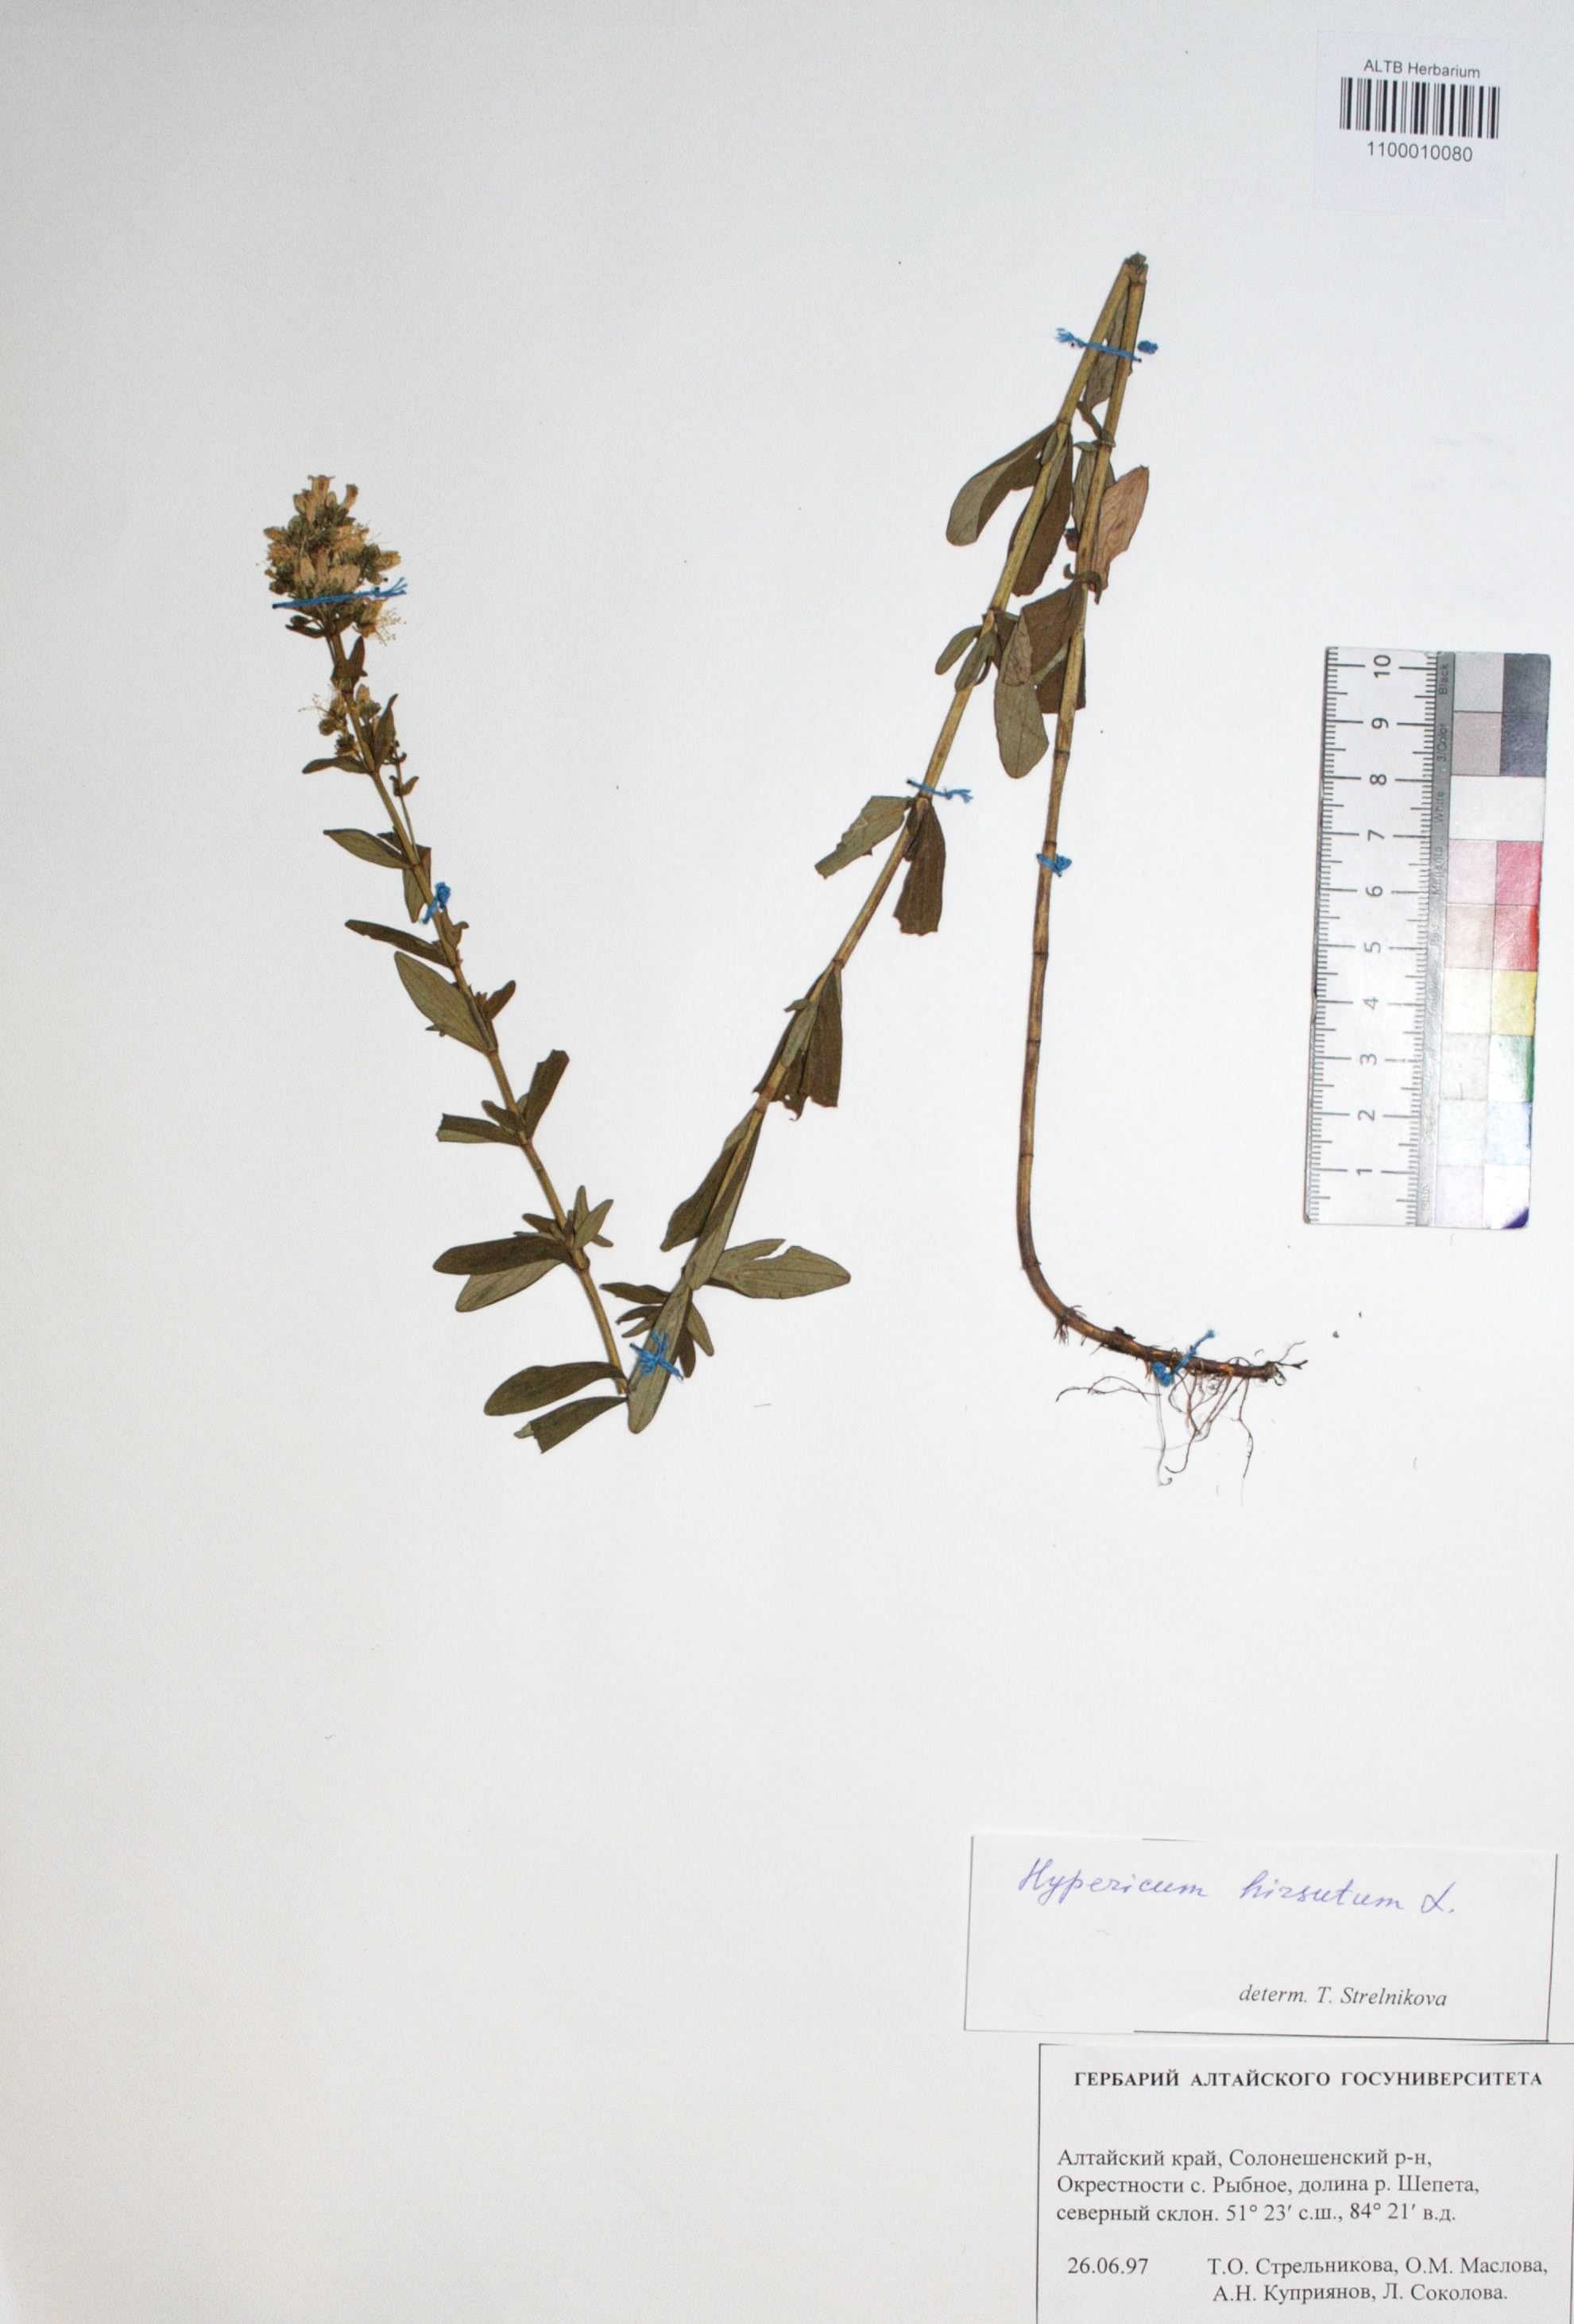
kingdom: Plantae
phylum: Tracheophyta
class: Magnoliopsida
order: Malpighiales
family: Hypericaceae
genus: Hypericum
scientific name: Hypericum hirsutum
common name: Hairy st. john's-wort
